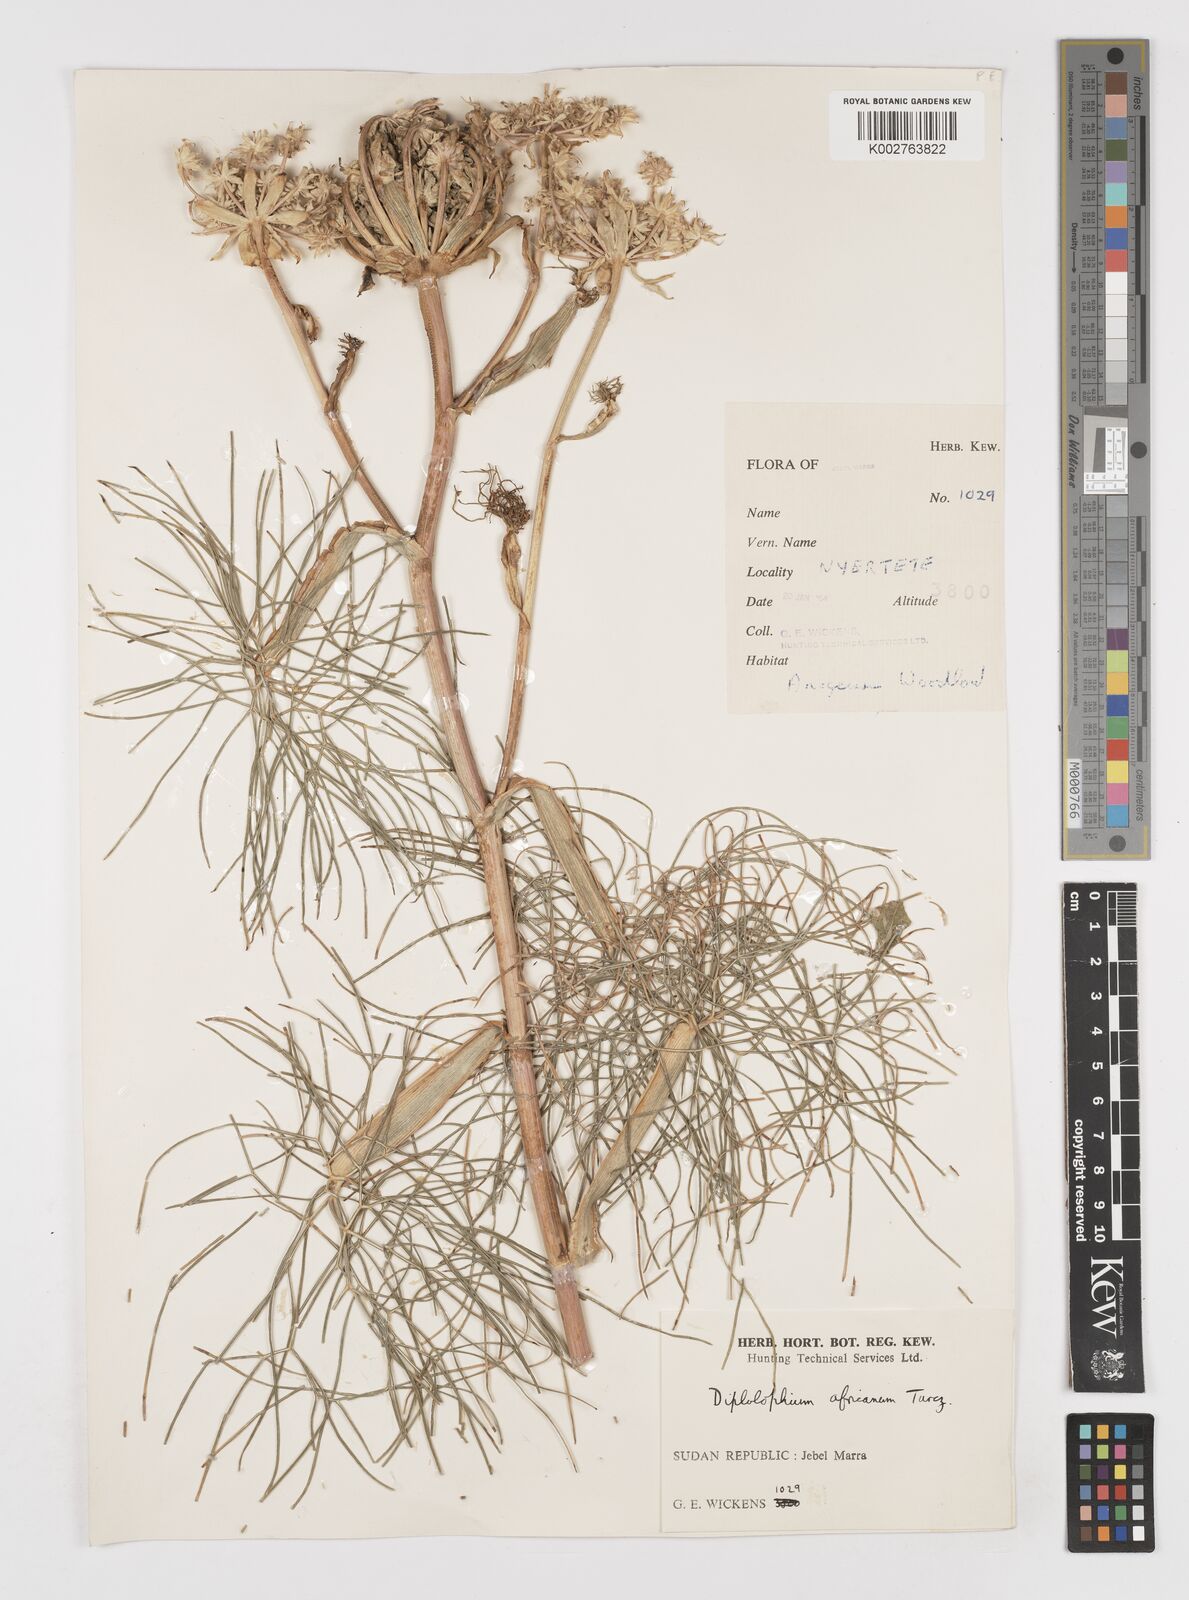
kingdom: Plantae
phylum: Tracheophyta
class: Magnoliopsida
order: Apiales
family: Apiaceae
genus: Diplolophium
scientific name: Diplolophium africanum
